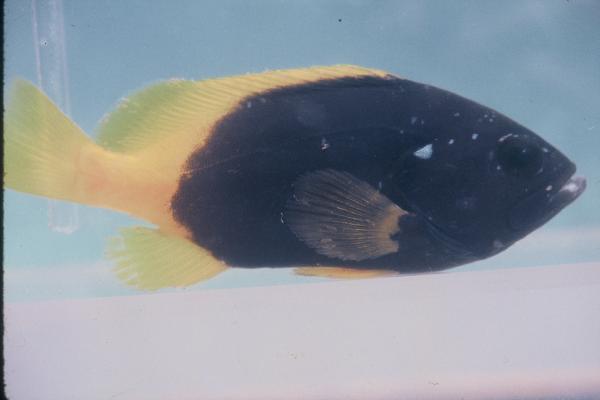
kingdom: Animalia
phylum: Chordata
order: Perciformes
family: Serranidae
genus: Epinephelus
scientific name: Epinephelus flavocaeruleus
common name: Blue and yellow grouper
